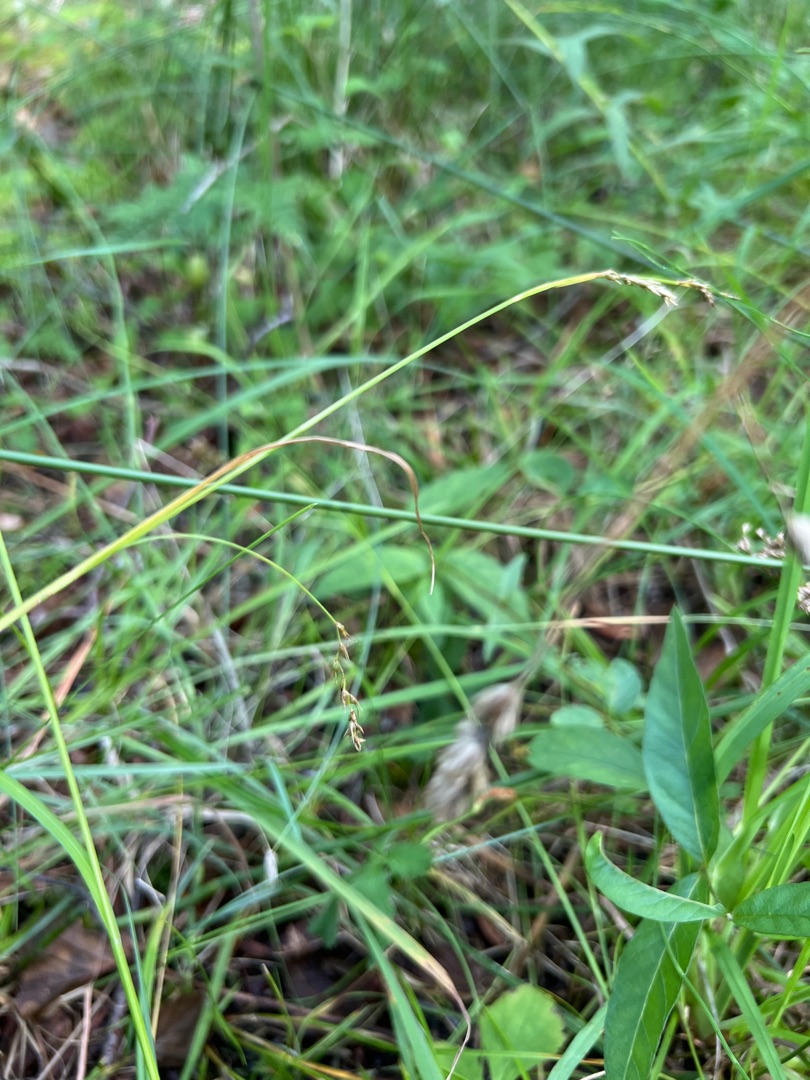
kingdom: Plantae
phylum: Tracheophyta
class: Liliopsida
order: Poales
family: Cyperaceae
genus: Carex
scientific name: Carex sylvatica
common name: Skov-star
